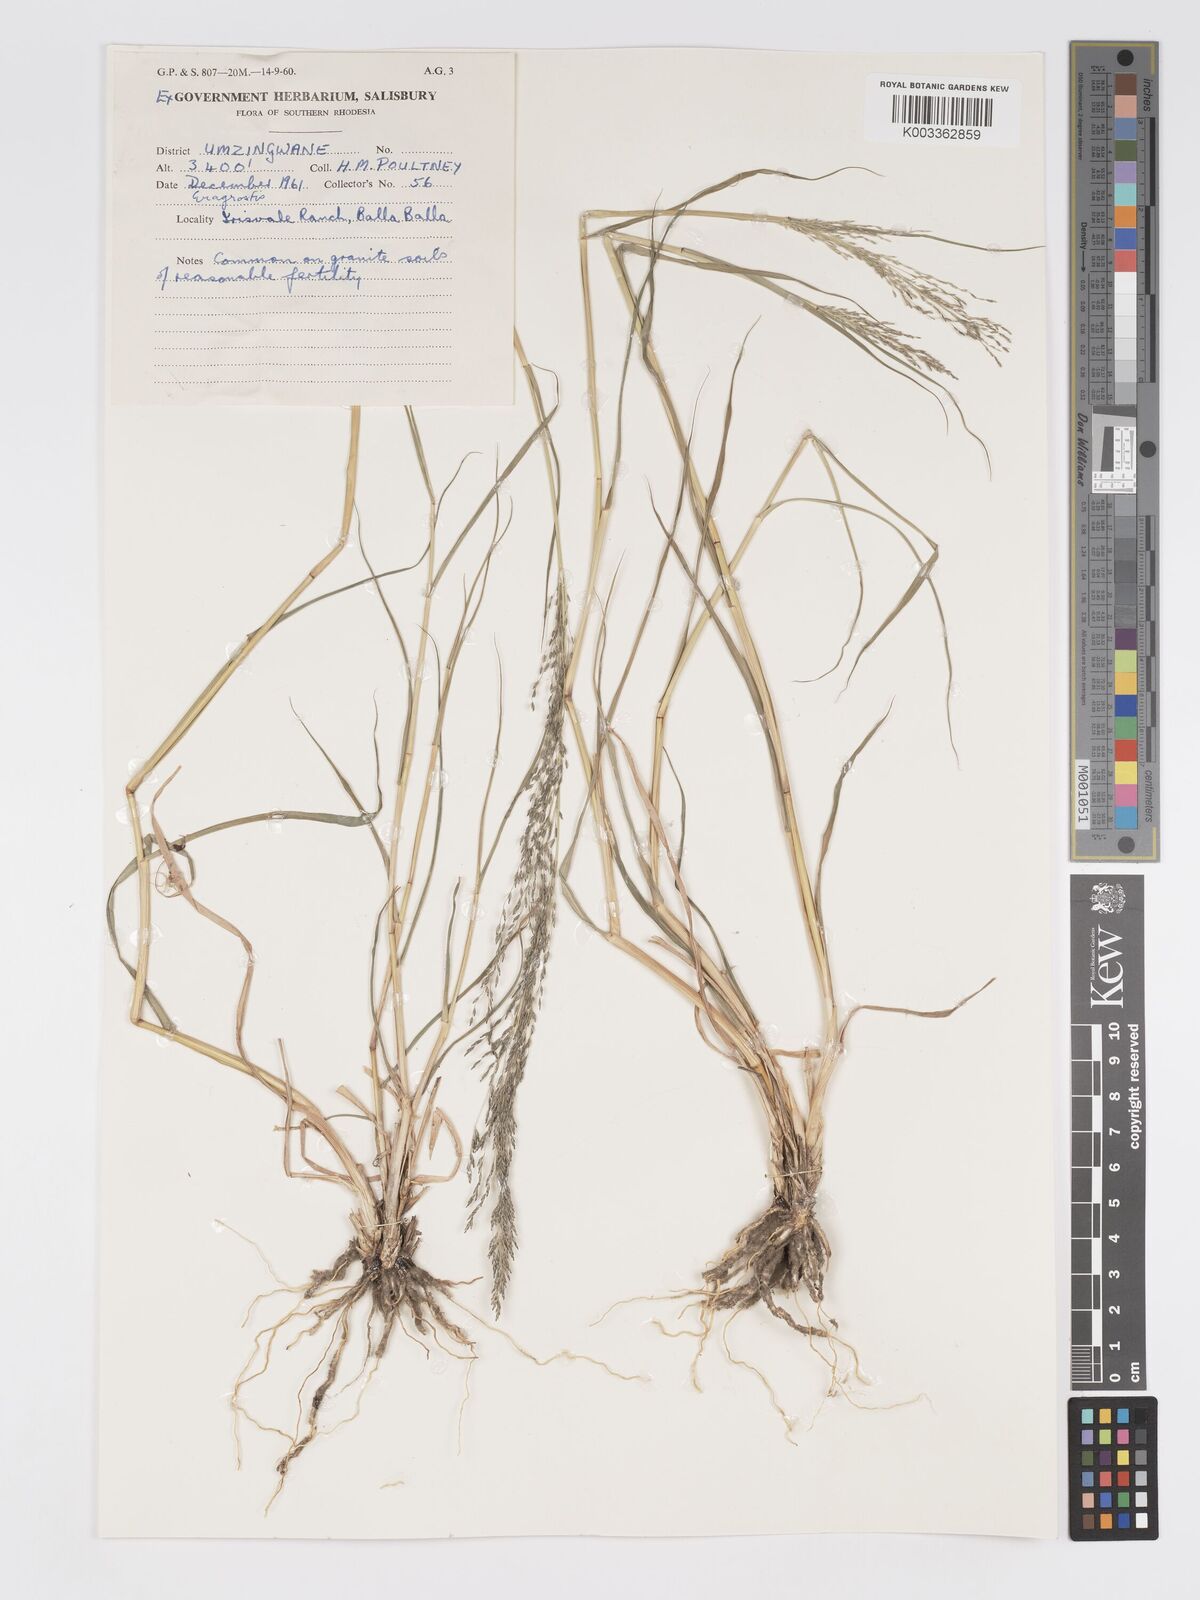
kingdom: Plantae
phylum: Tracheophyta
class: Liliopsida
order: Poales
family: Poaceae
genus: Eragrostis
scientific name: Eragrostis cylindriflora
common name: Cylinderflower lovegrass
